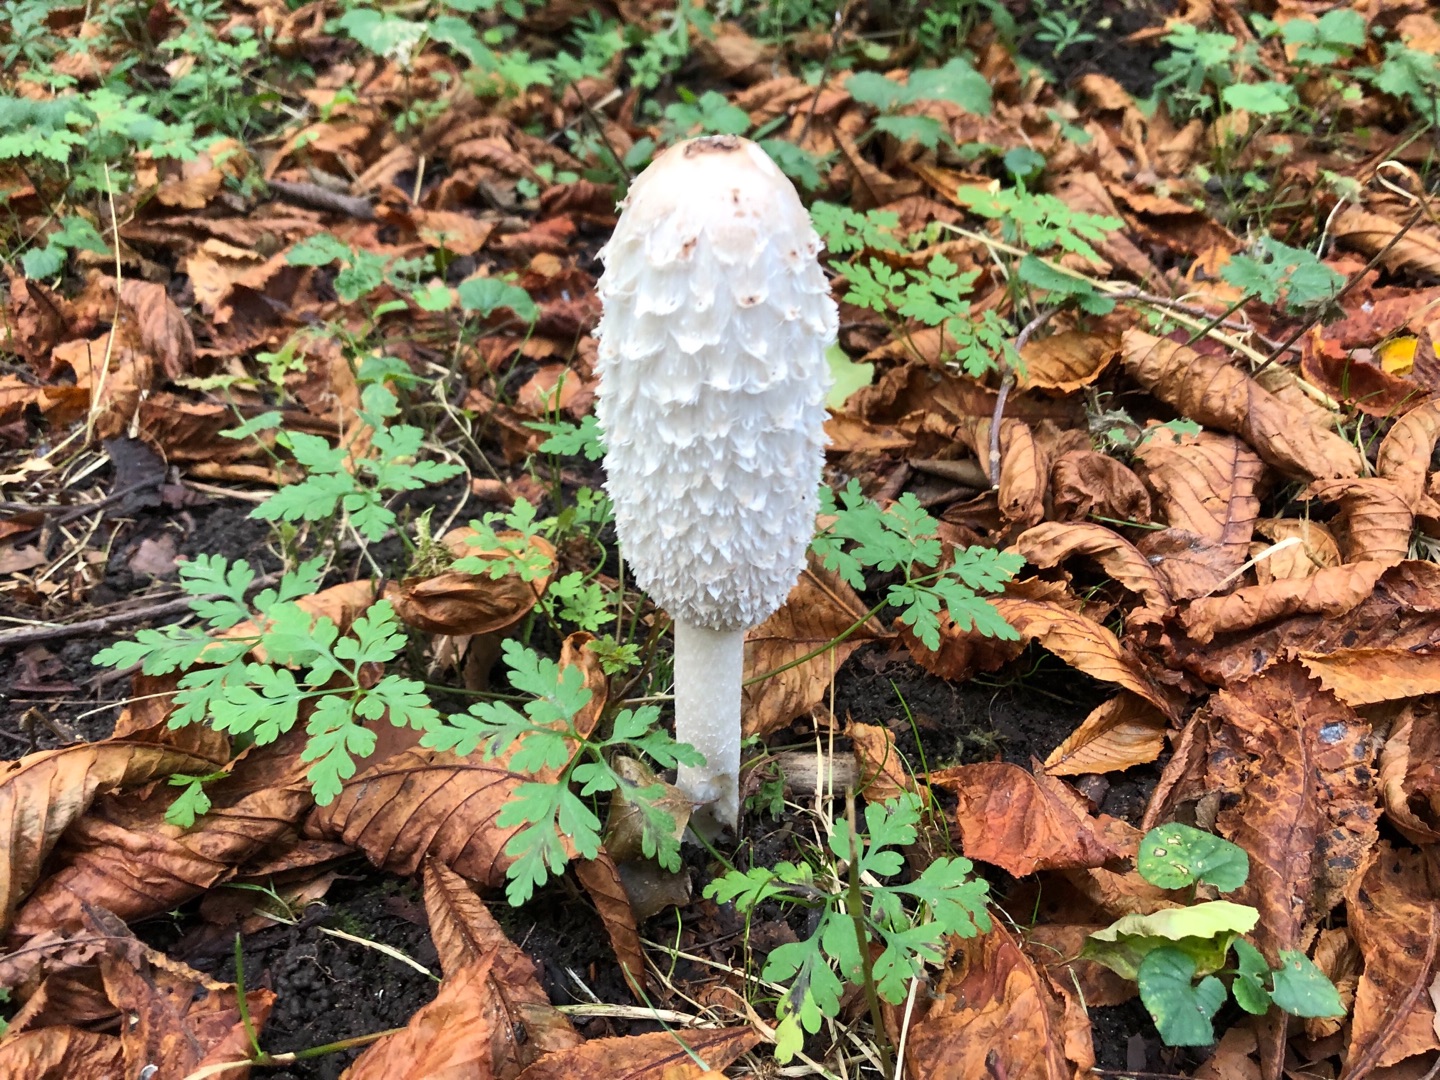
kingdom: Fungi
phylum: Basidiomycota
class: Agaricomycetes
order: Agaricales
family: Agaricaceae
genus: Coprinus
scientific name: Coprinus comatus
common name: Stor parykhat
